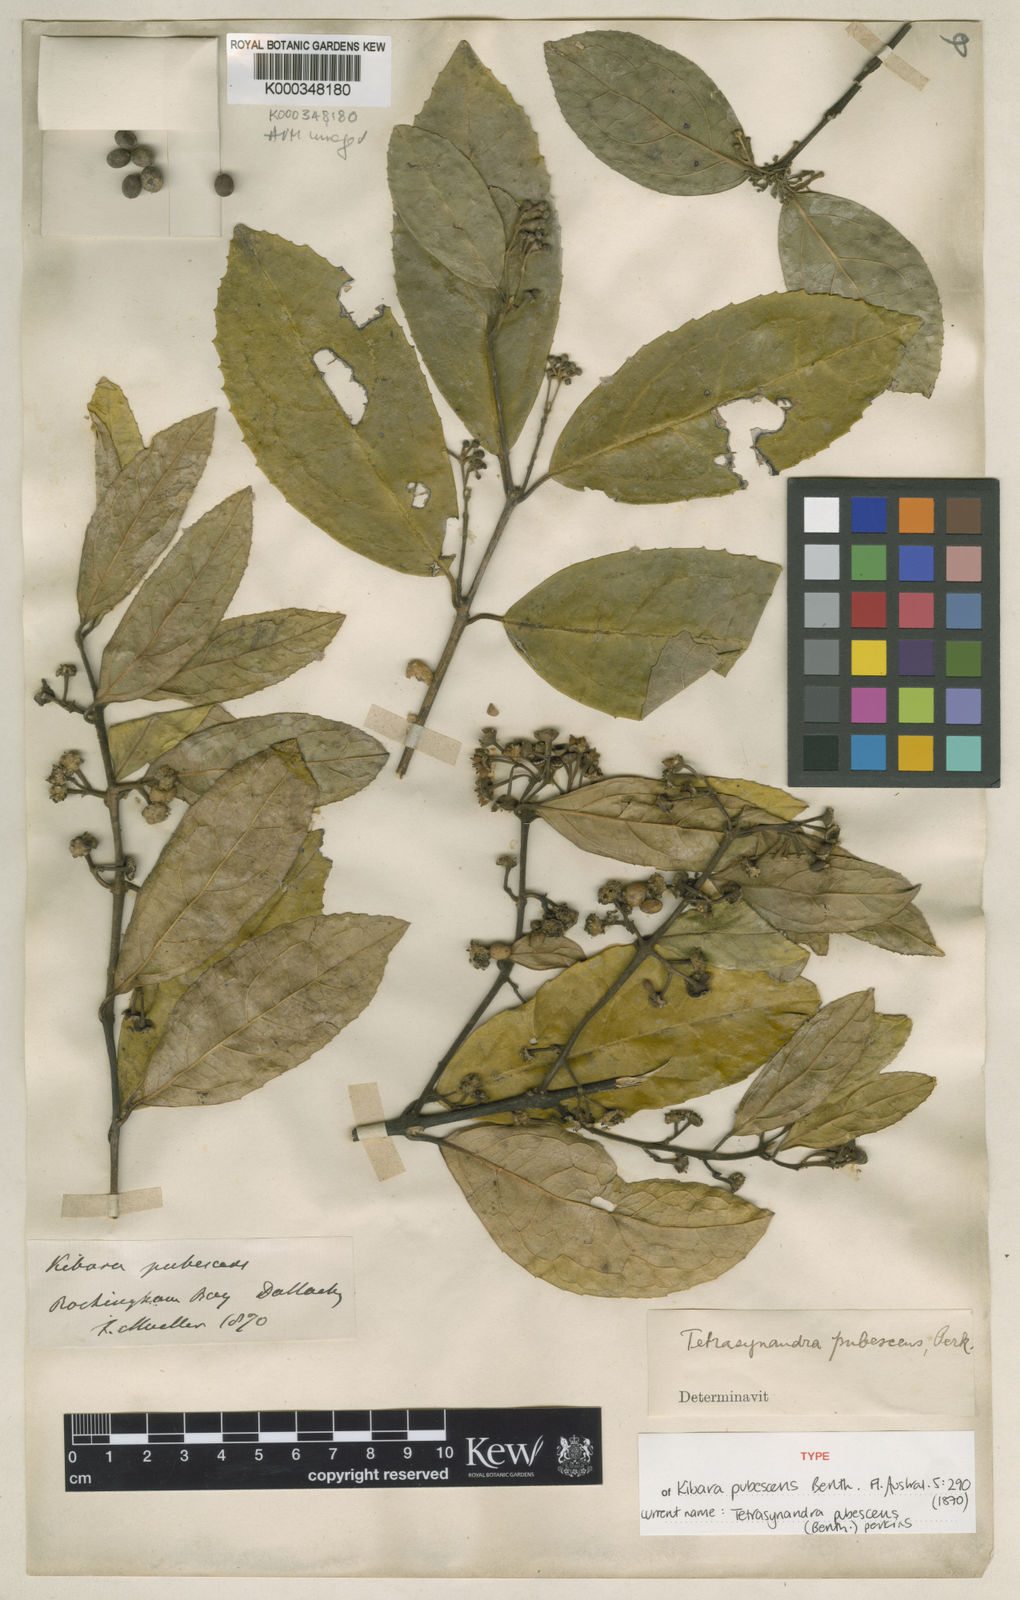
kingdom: Plantae
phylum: Tracheophyta
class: Magnoliopsida
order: Laurales
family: Monimiaceae
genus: Wilkiea
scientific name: Wilkiea pubescens
